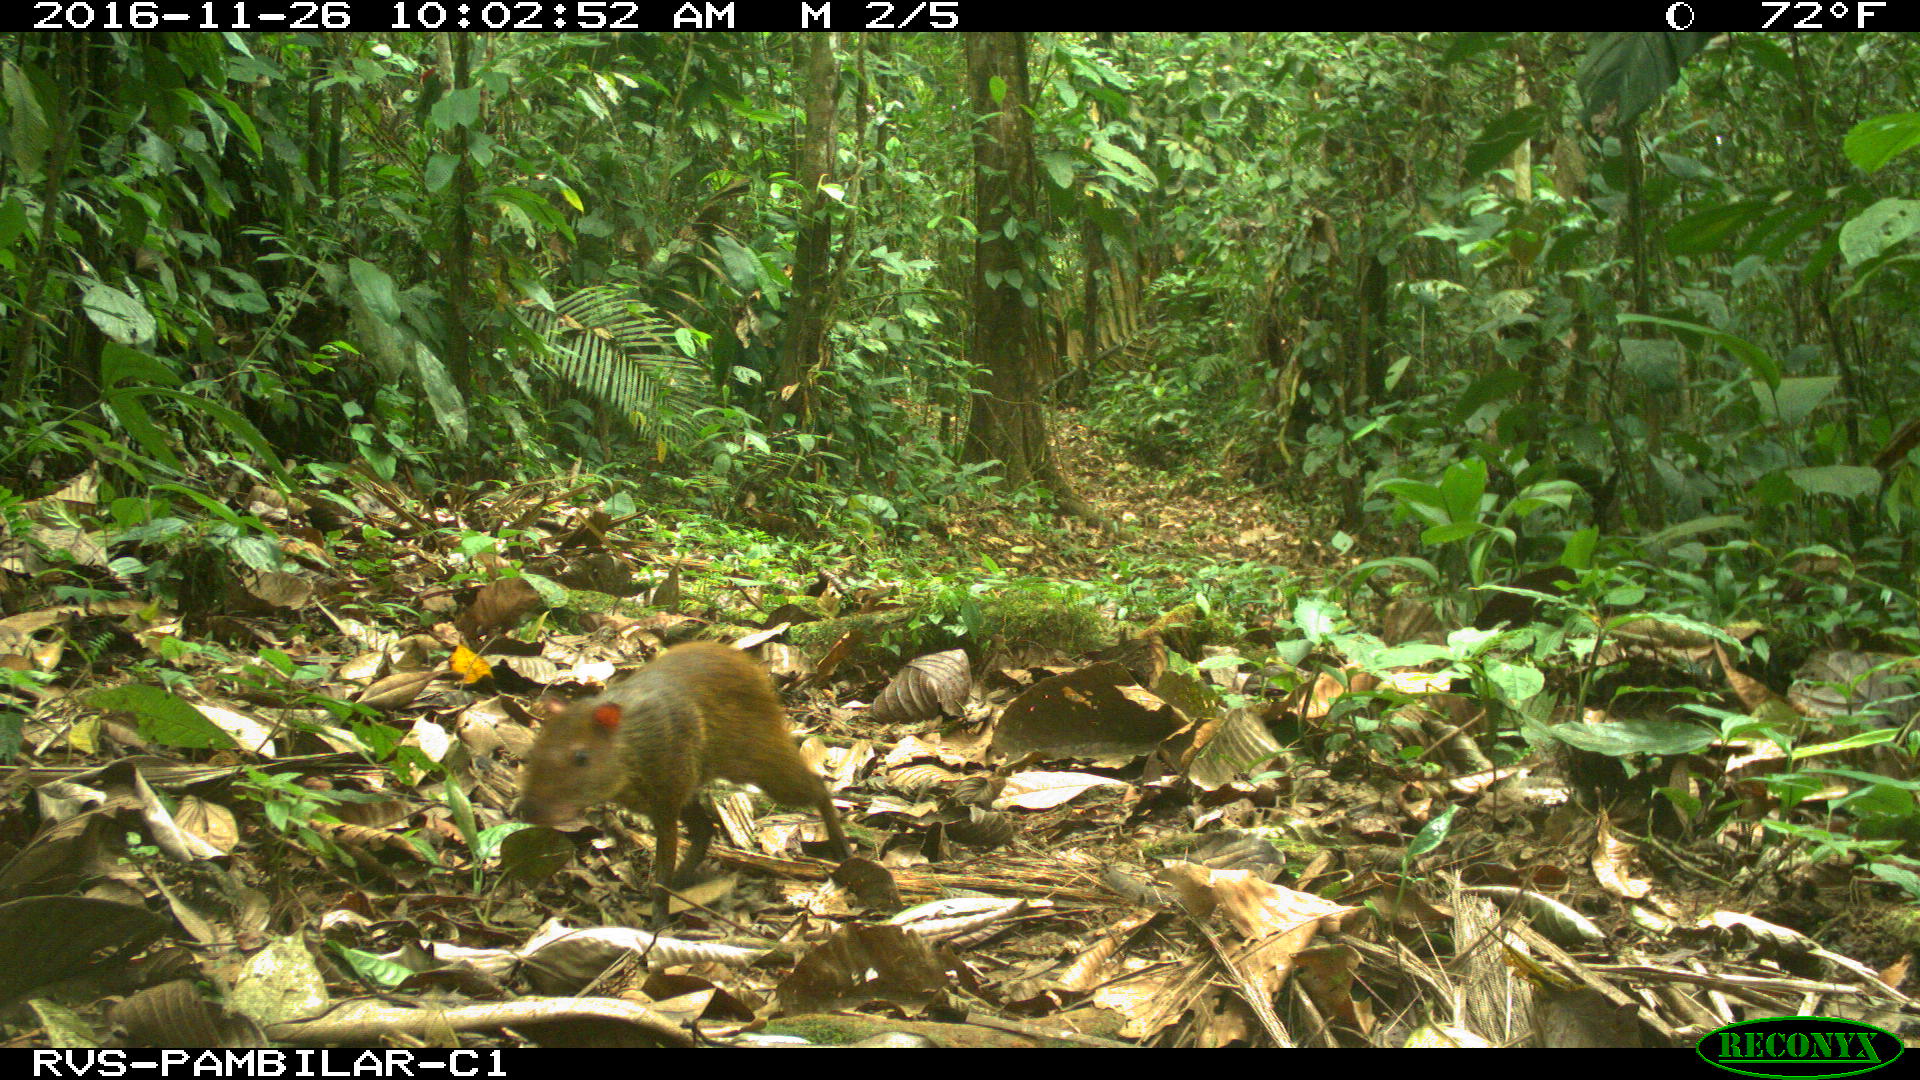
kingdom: Animalia
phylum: Chordata
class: Mammalia
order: Rodentia
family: Dasyproctidae
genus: Dasyprocta
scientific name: Dasyprocta punctata
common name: Central american agouti
